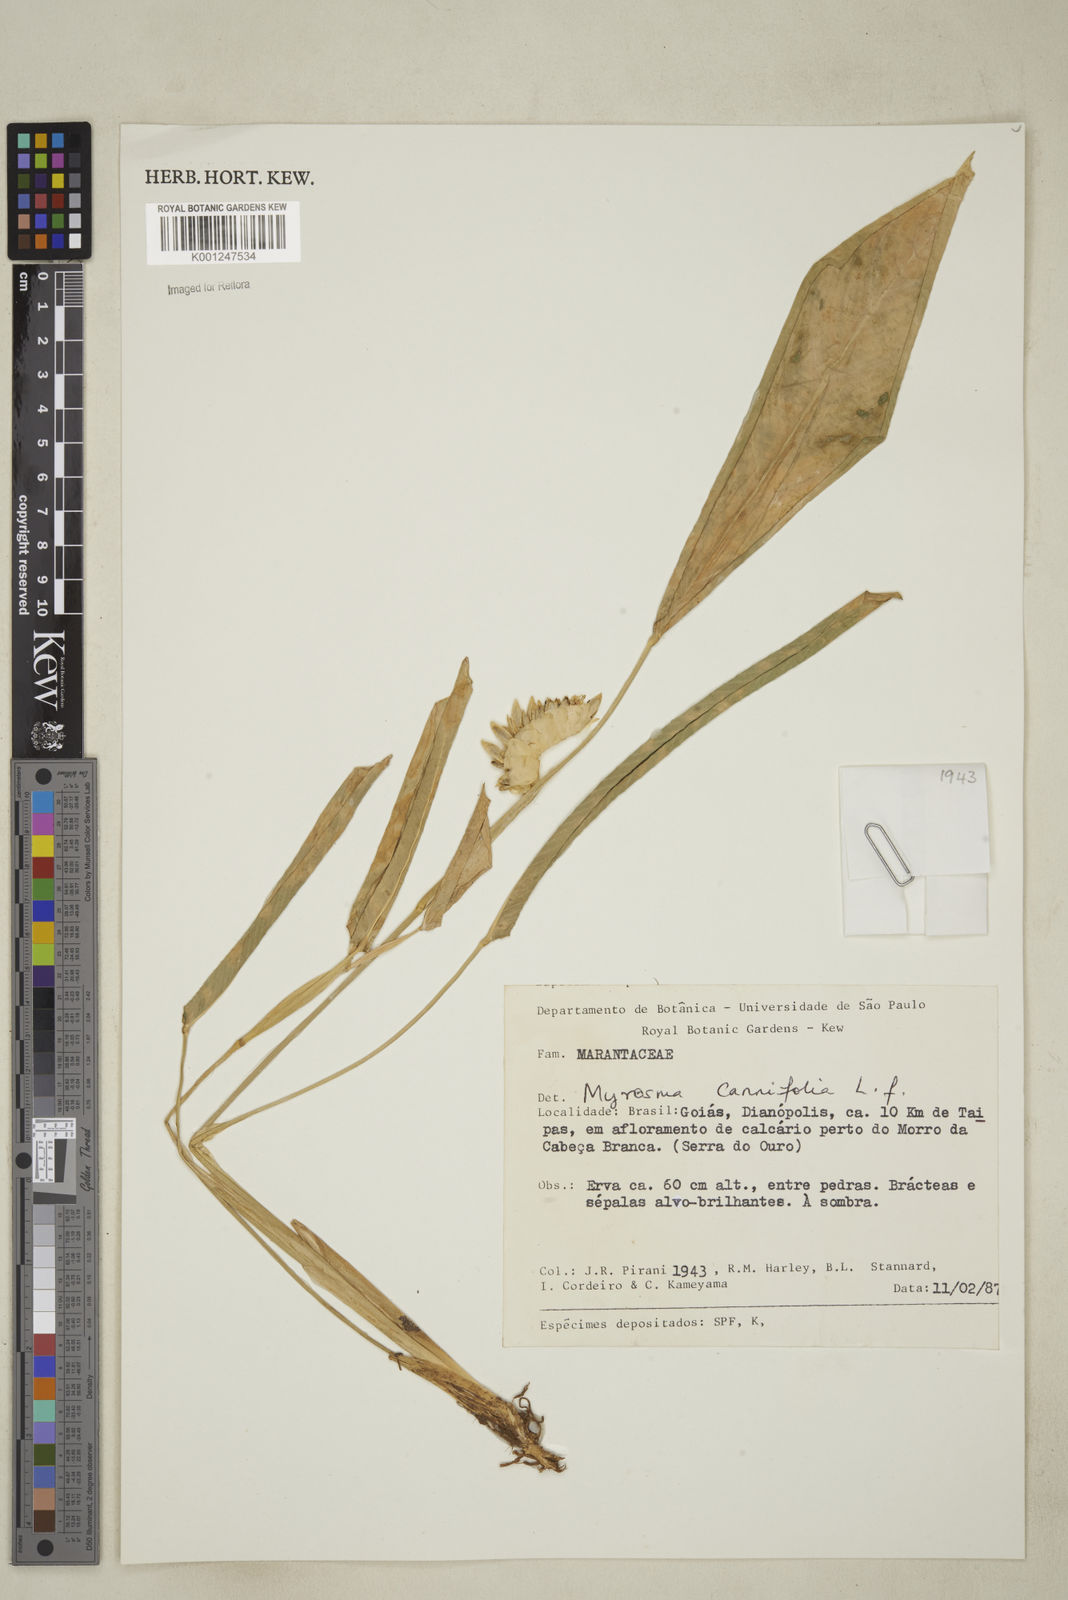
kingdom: Plantae
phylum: Tracheophyta
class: Liliopsida
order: Zingiberales
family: Marantaceae
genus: Myrosma
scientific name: Myrosma cannifolia
